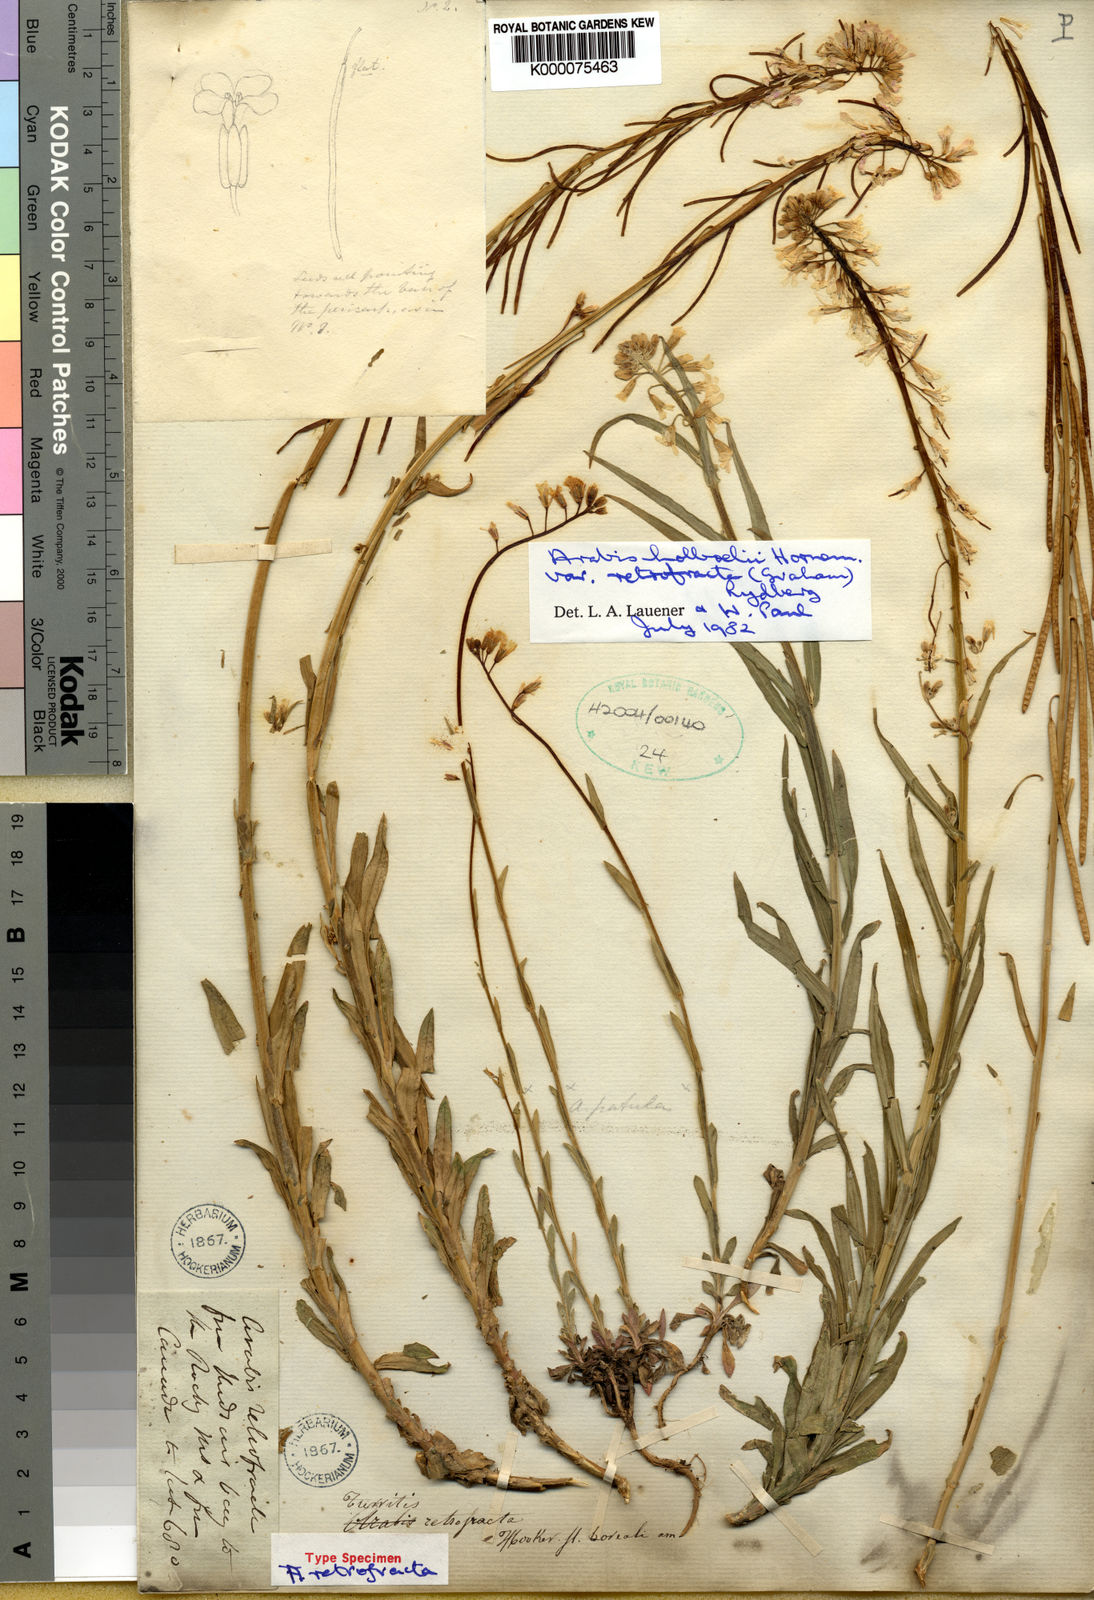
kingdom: Plantae
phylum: Tracheophyta
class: Magnoliopsida
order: Brassicales
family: Brassicaceae
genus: Boechera
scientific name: Boechera retrofracta
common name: Dangling suncress
